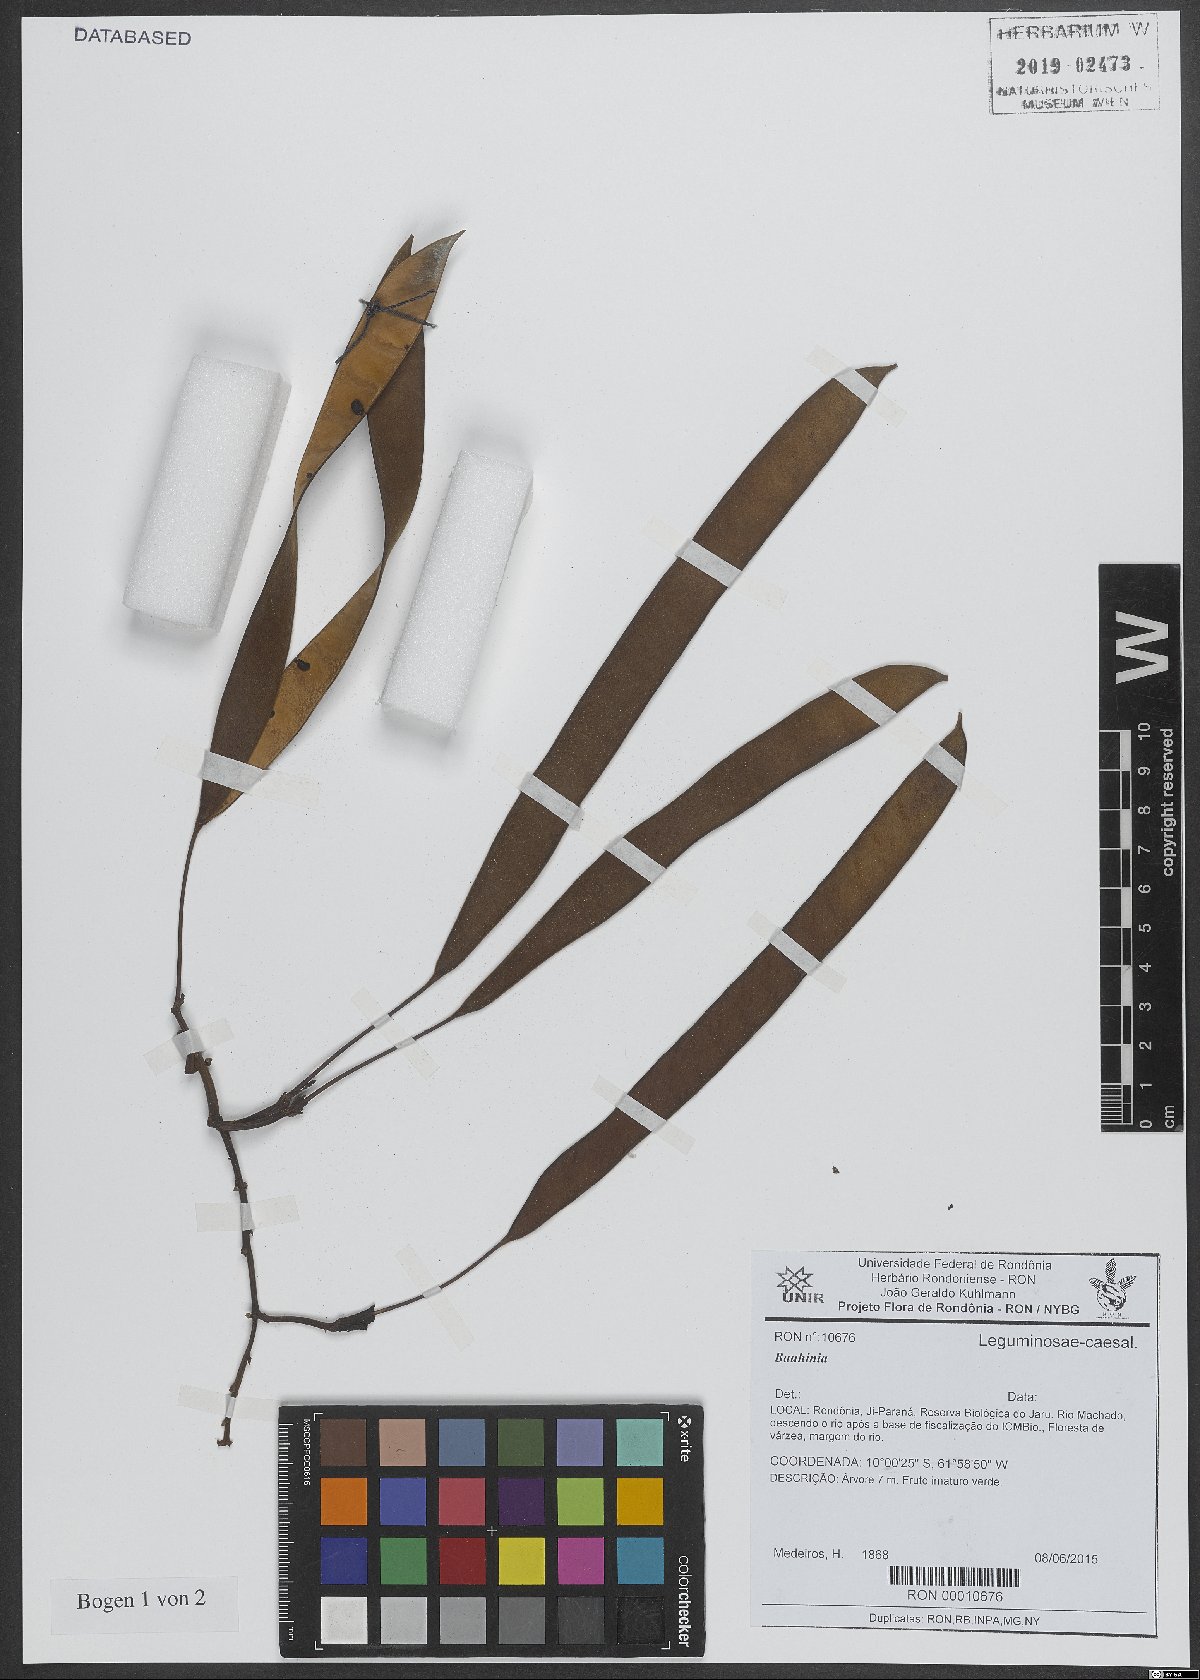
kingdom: Plantae
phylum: Tracheophyta
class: Magnoliopsida
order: Fabales
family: Fabaceae
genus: Bauhinia
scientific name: Bauhinia
